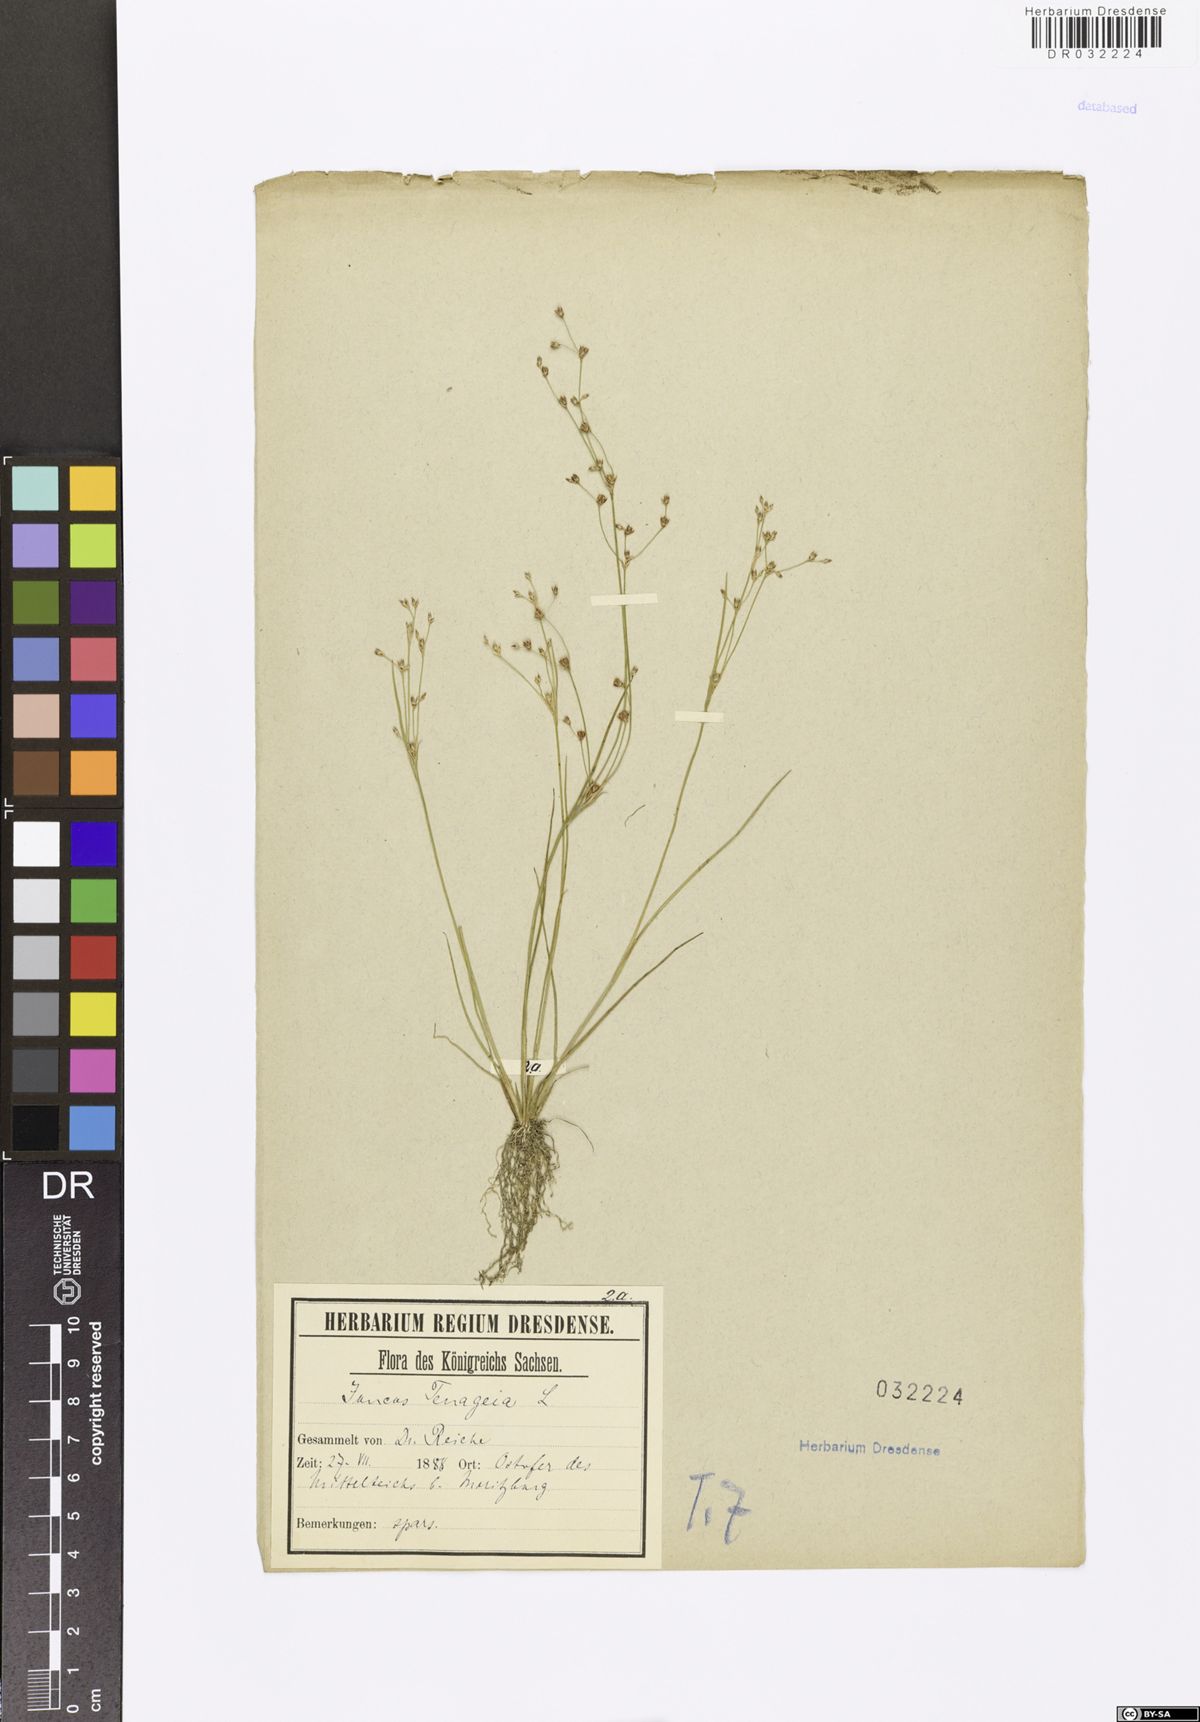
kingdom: Plantae
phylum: Tracheophyta
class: Liliopsida
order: Poales
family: Juncaceae
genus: Juncus
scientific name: Juncus tenageia
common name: Sand rush
